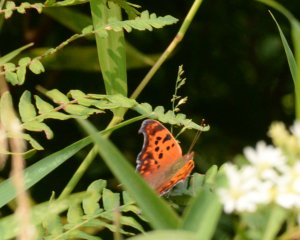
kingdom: Animalia
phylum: Arthropoda
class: Insecta
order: Lepidoptera
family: Nymphalidae
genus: Polygonia
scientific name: Polygonia interrogationis
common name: Question Mark
